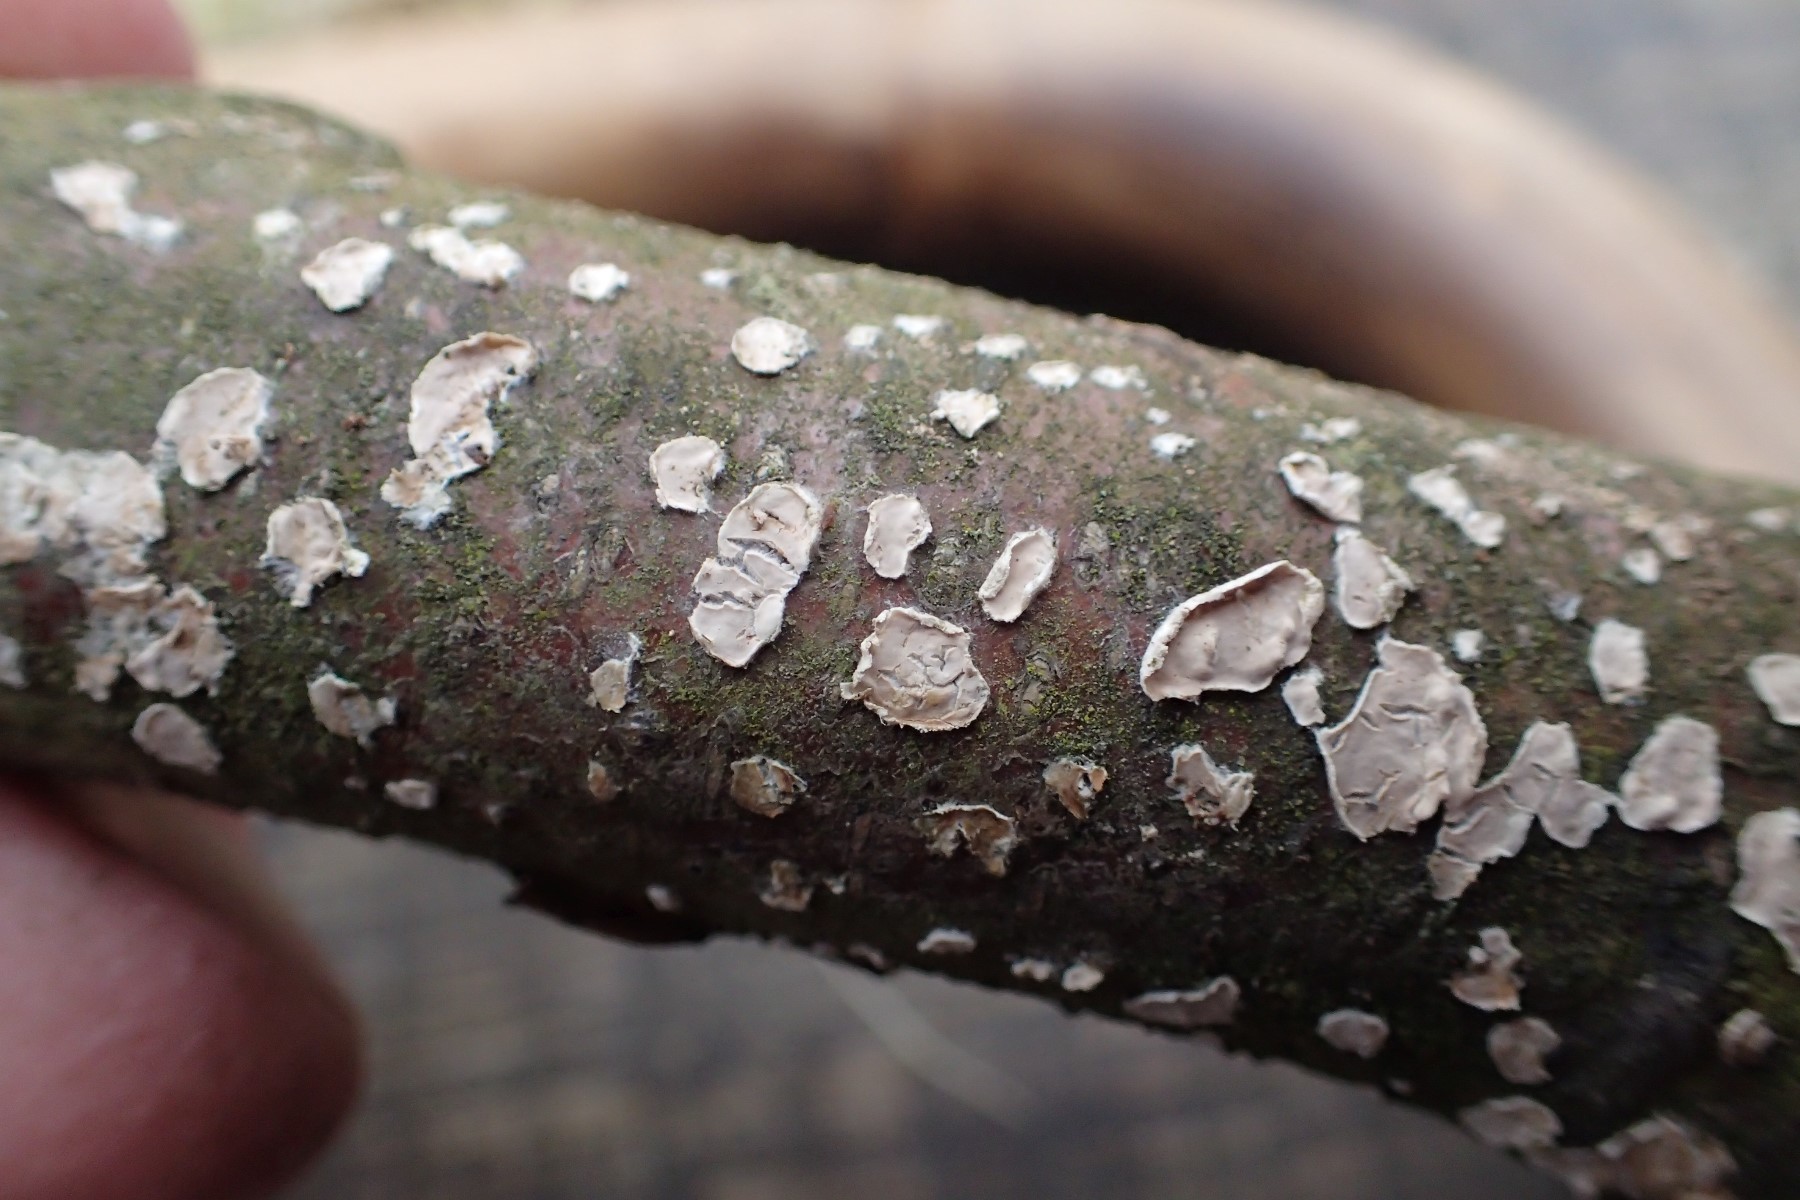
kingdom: Fungi
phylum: Basidiomycota
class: Agaricomycetes
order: Agaricales
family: Physalacriaceae
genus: Cylindrobasidium
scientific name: Cylindrobasidium evolvens
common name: sprækkehinde
